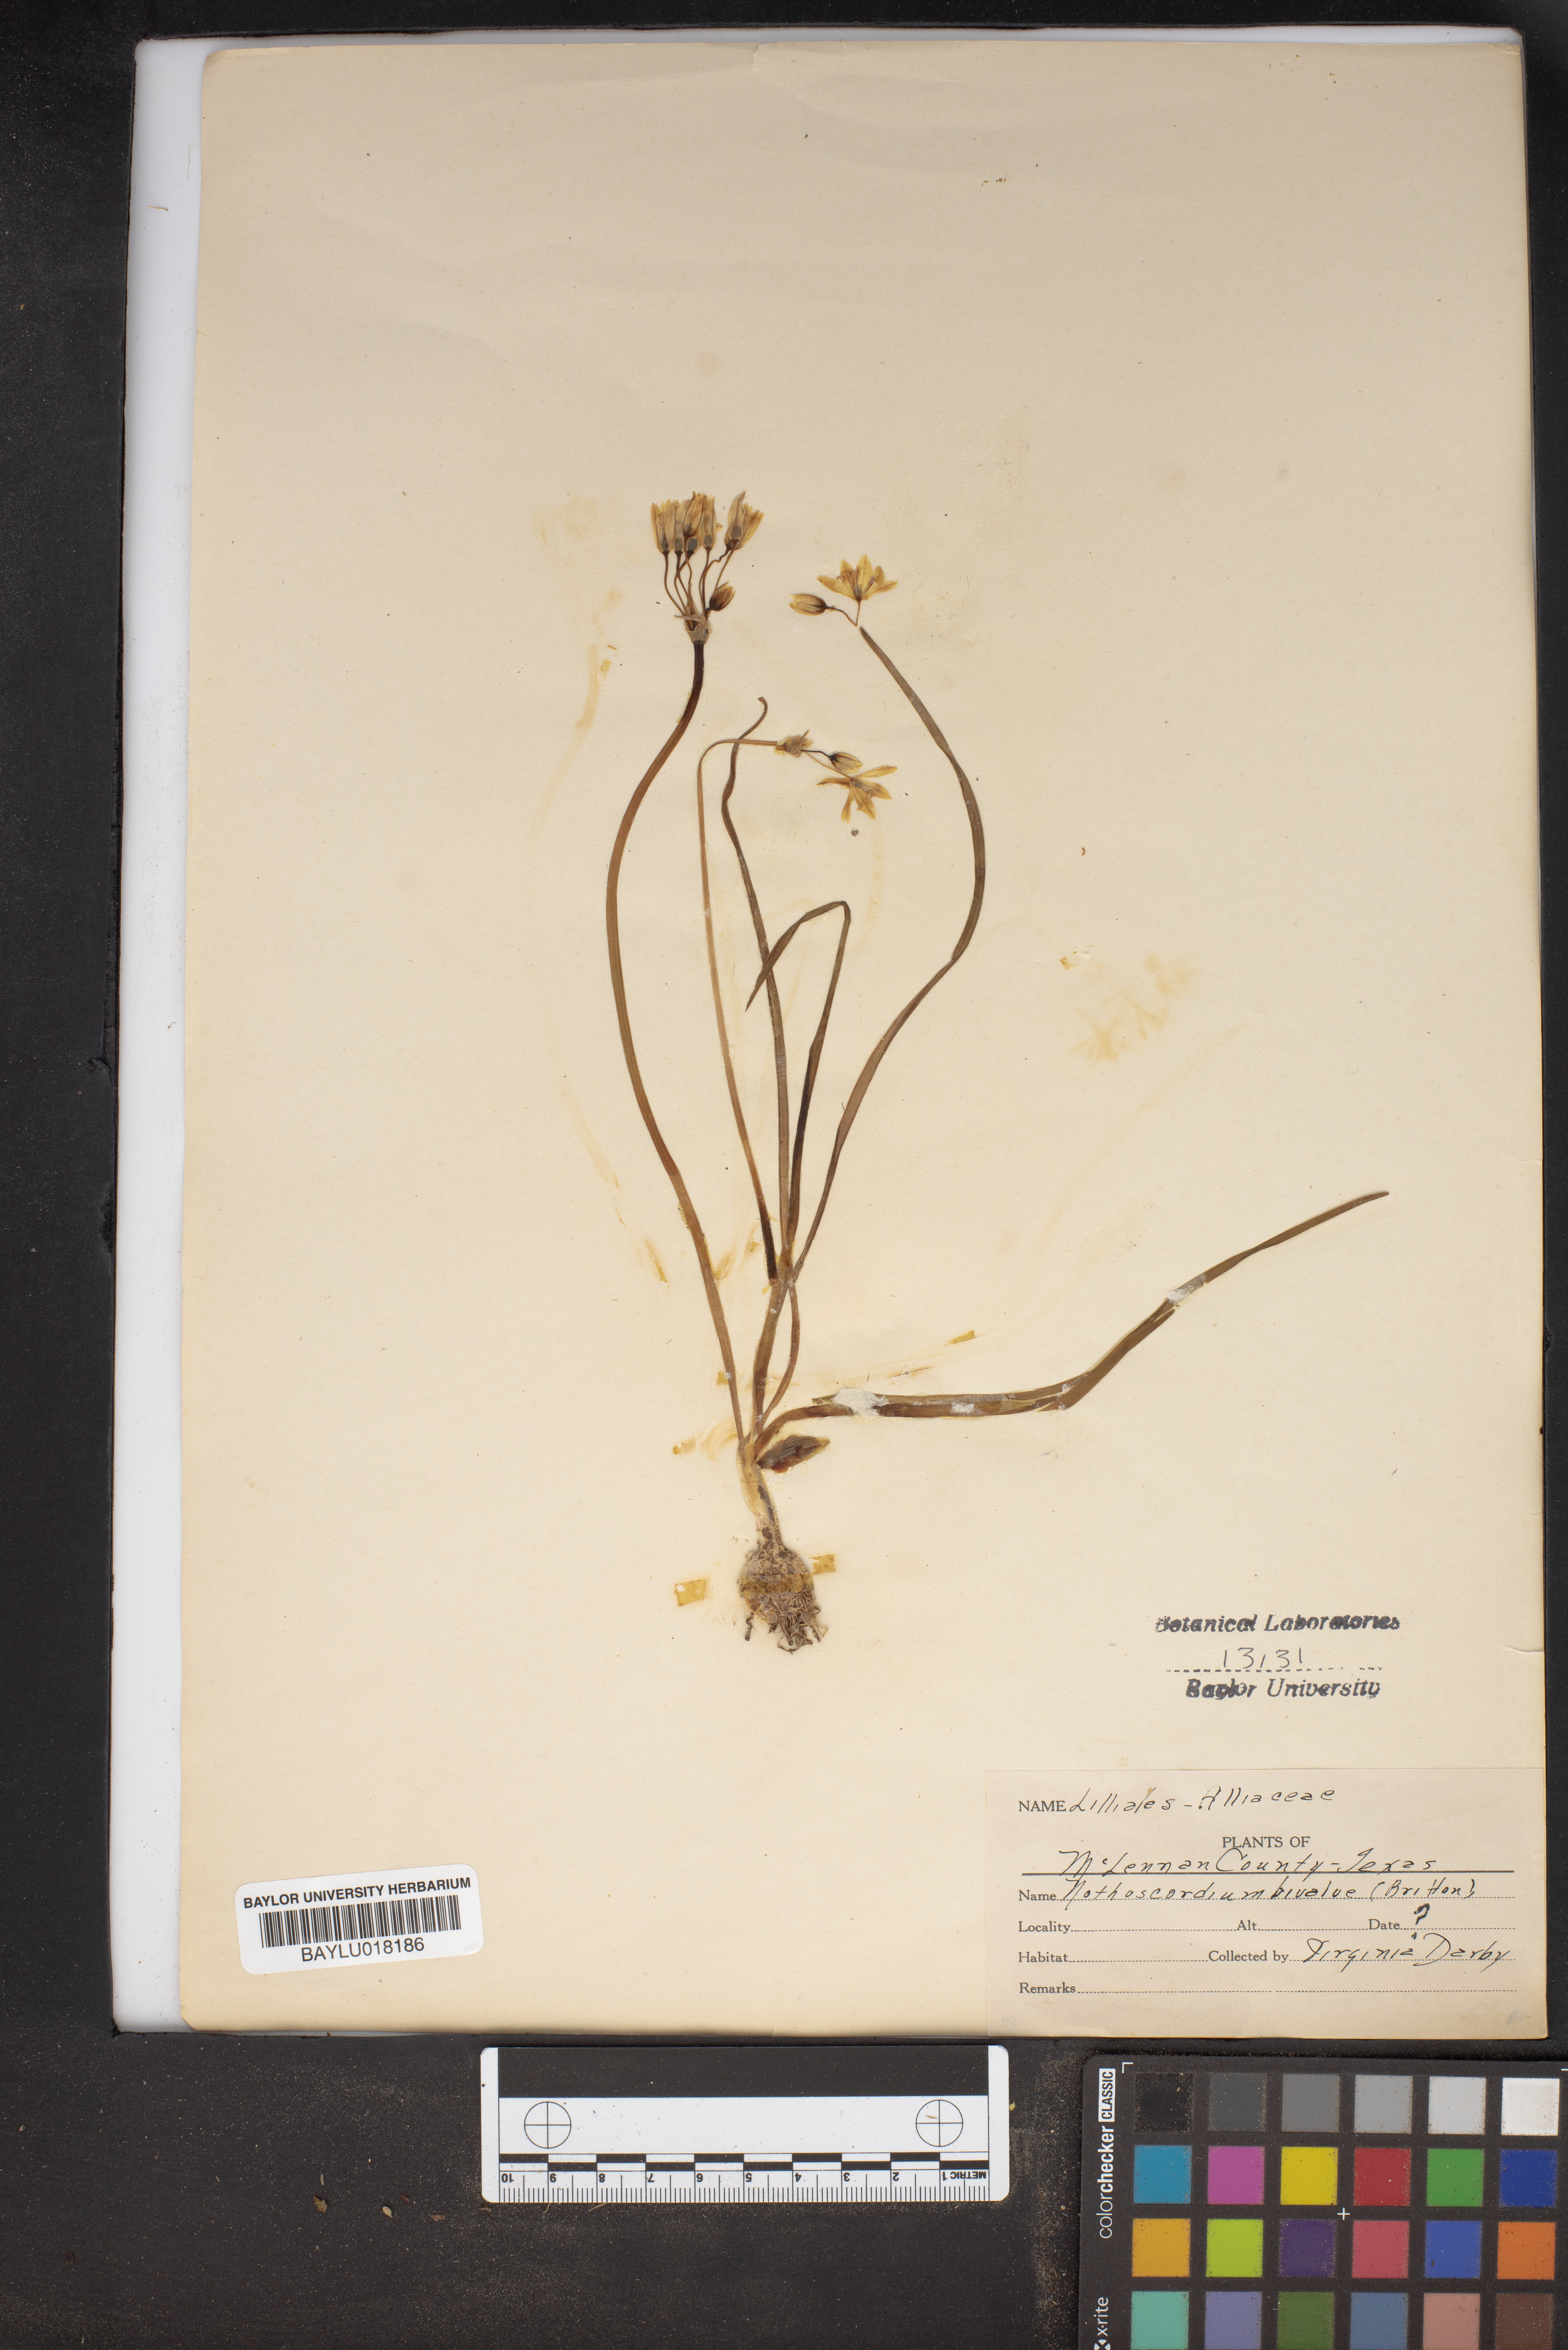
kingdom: Plantae
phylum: Tracheophyta
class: Liliopsida
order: Asparagales
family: Amaryllidaceae
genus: Nothoscordum
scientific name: Nothoscordum bivalve
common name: Crow-poison
